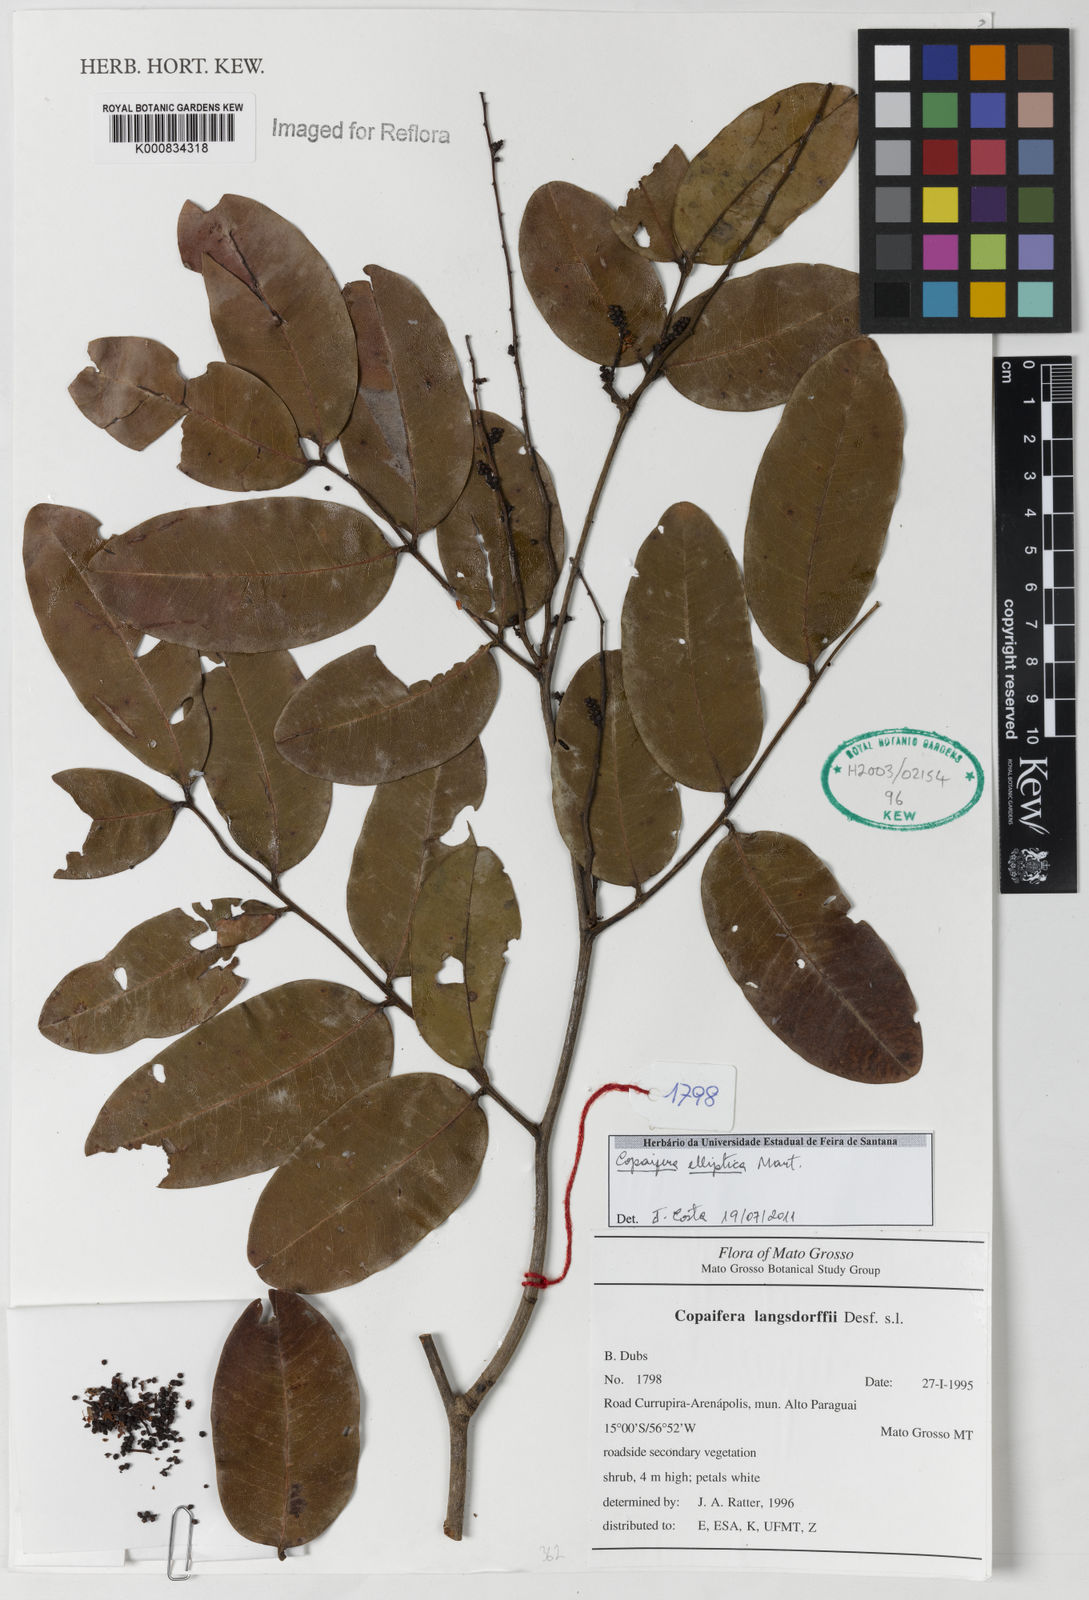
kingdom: Plantae
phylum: Tracheophyta
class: Magnoliopsida
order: Fabales
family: Fabaceae
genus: Copaifera
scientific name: Copaifera elliptica
